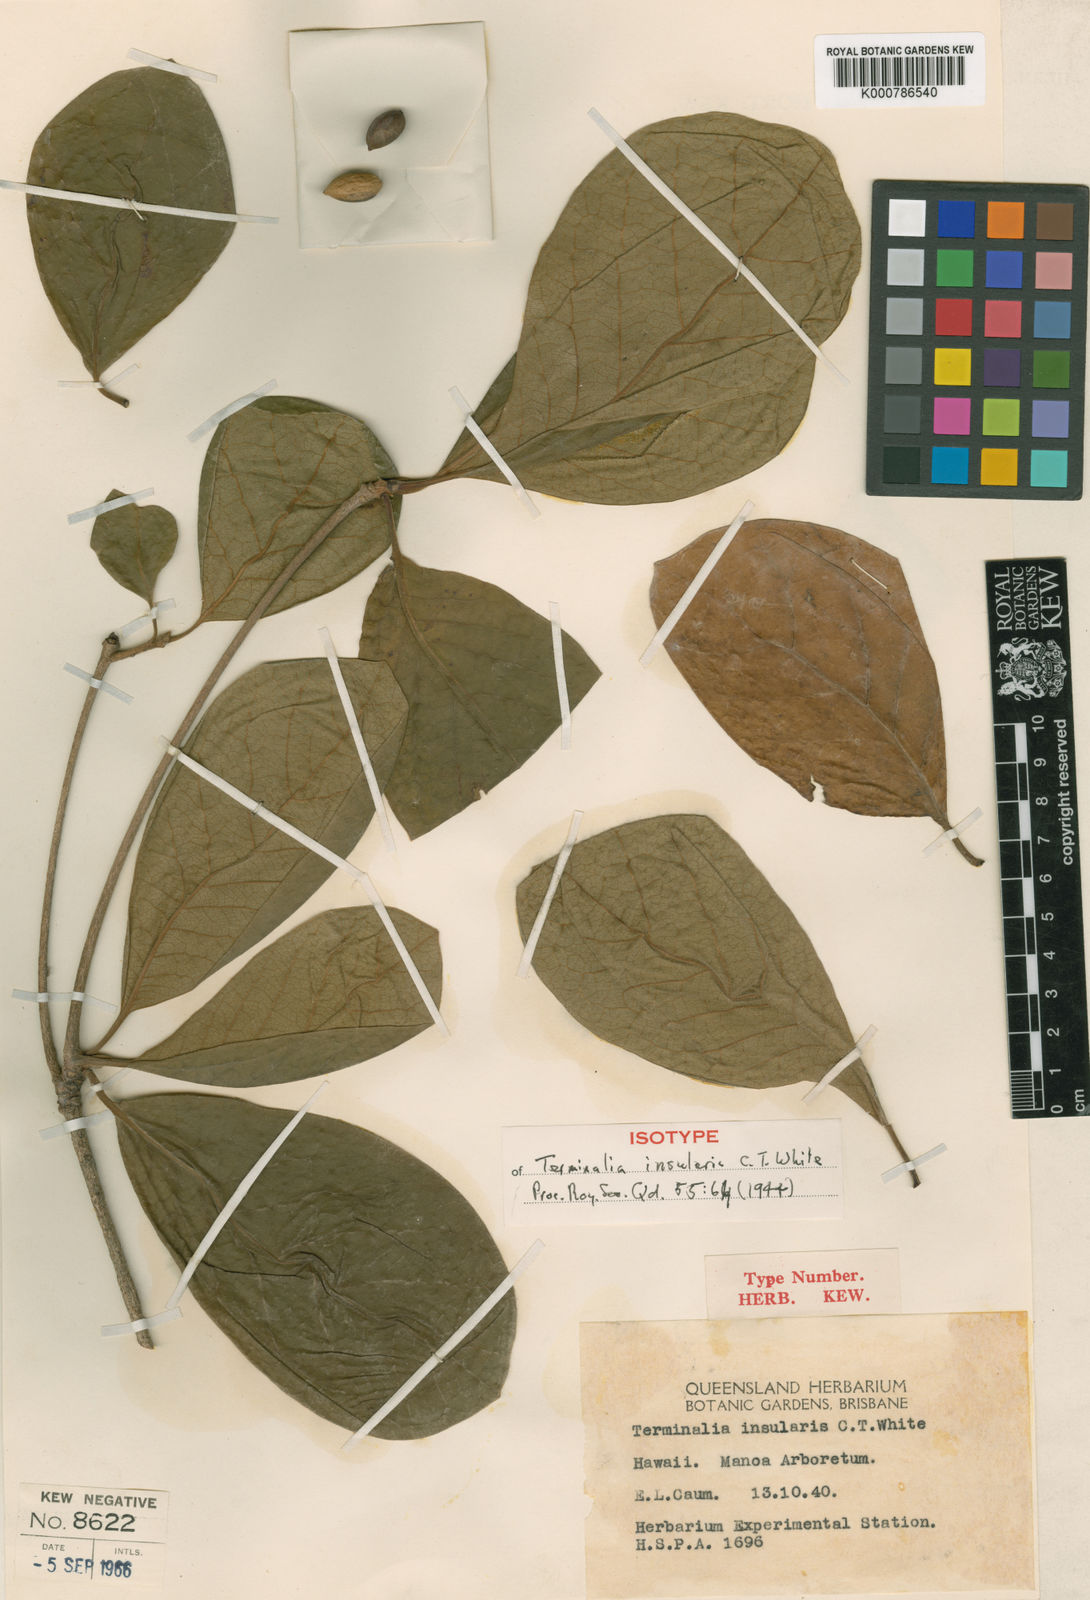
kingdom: Plantae
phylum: Tracheophyta
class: Magnoliopsida
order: Myrtales
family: Combretaceae
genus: Terminalia
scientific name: Terminalia subacroptera
